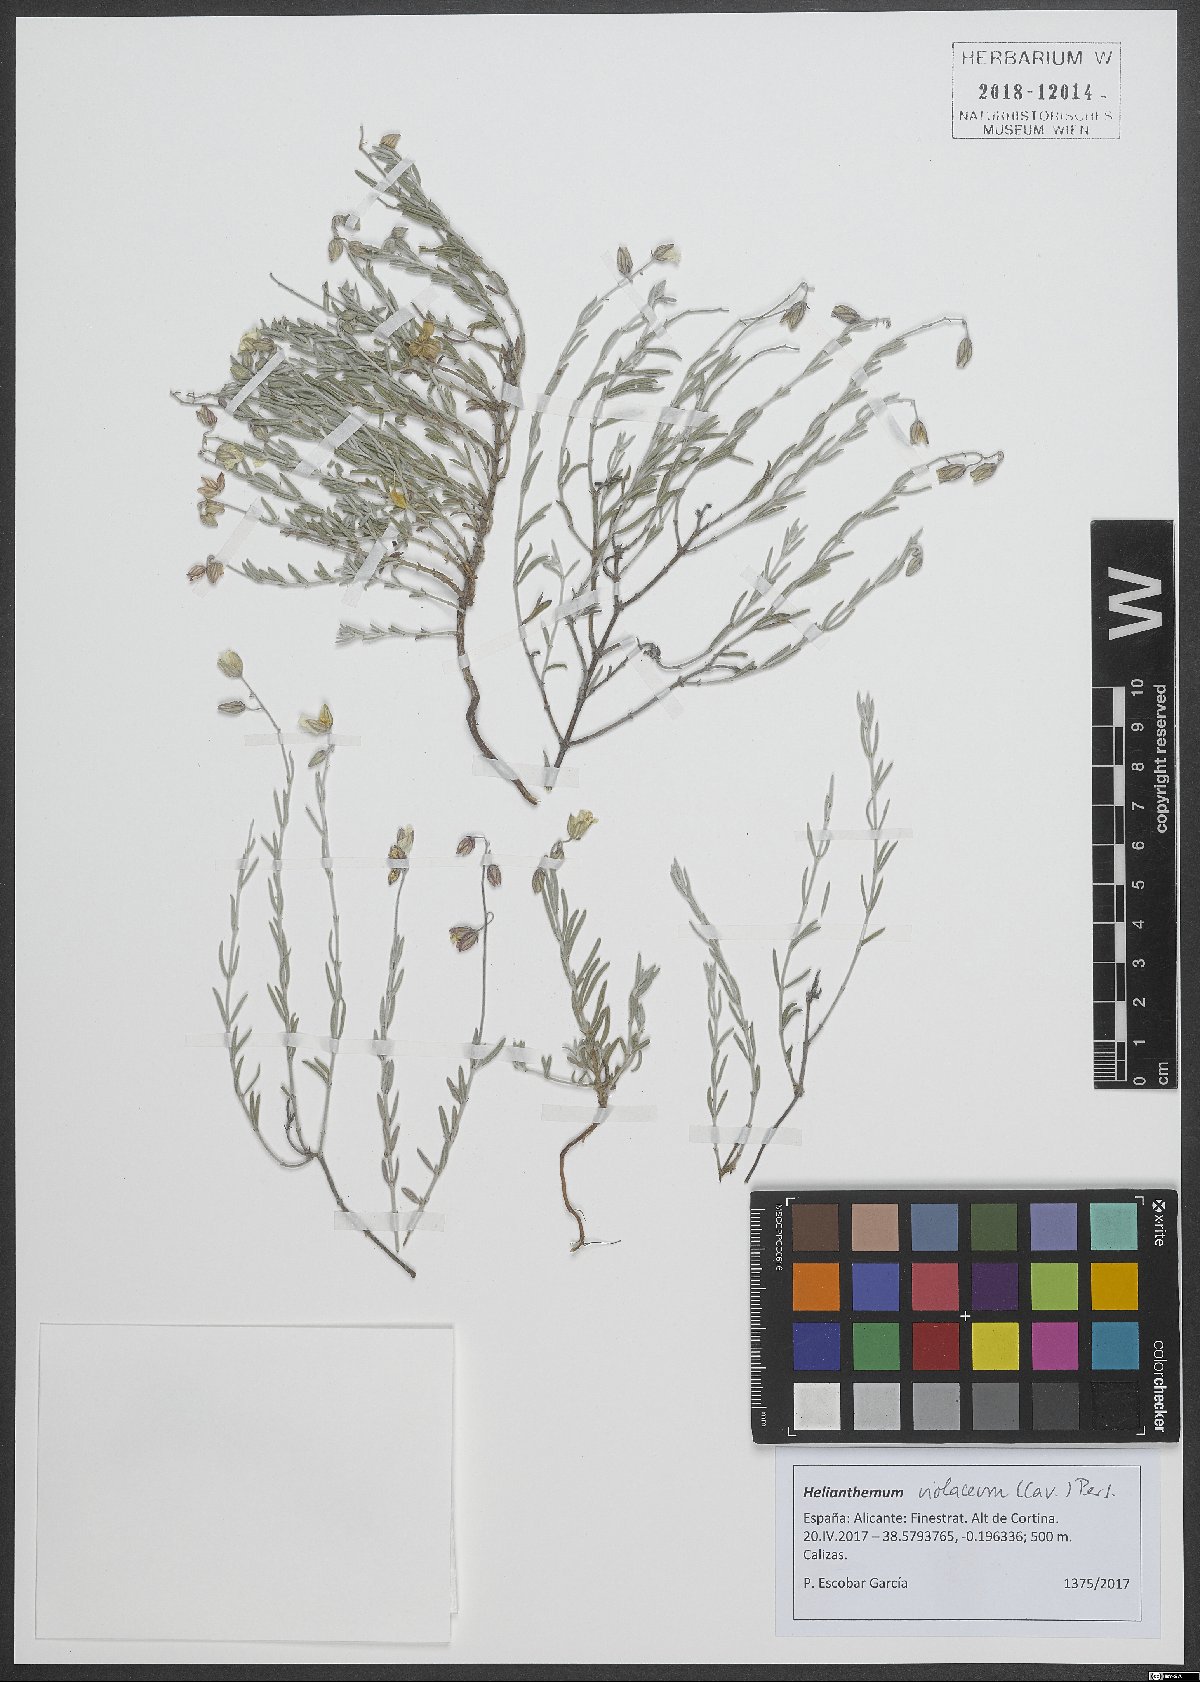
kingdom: Plantae
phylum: Tracheophyta
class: Magnoliopsida
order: Malvales
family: Cistaceae
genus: Helianthemum
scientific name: Helianthemum violaceum
